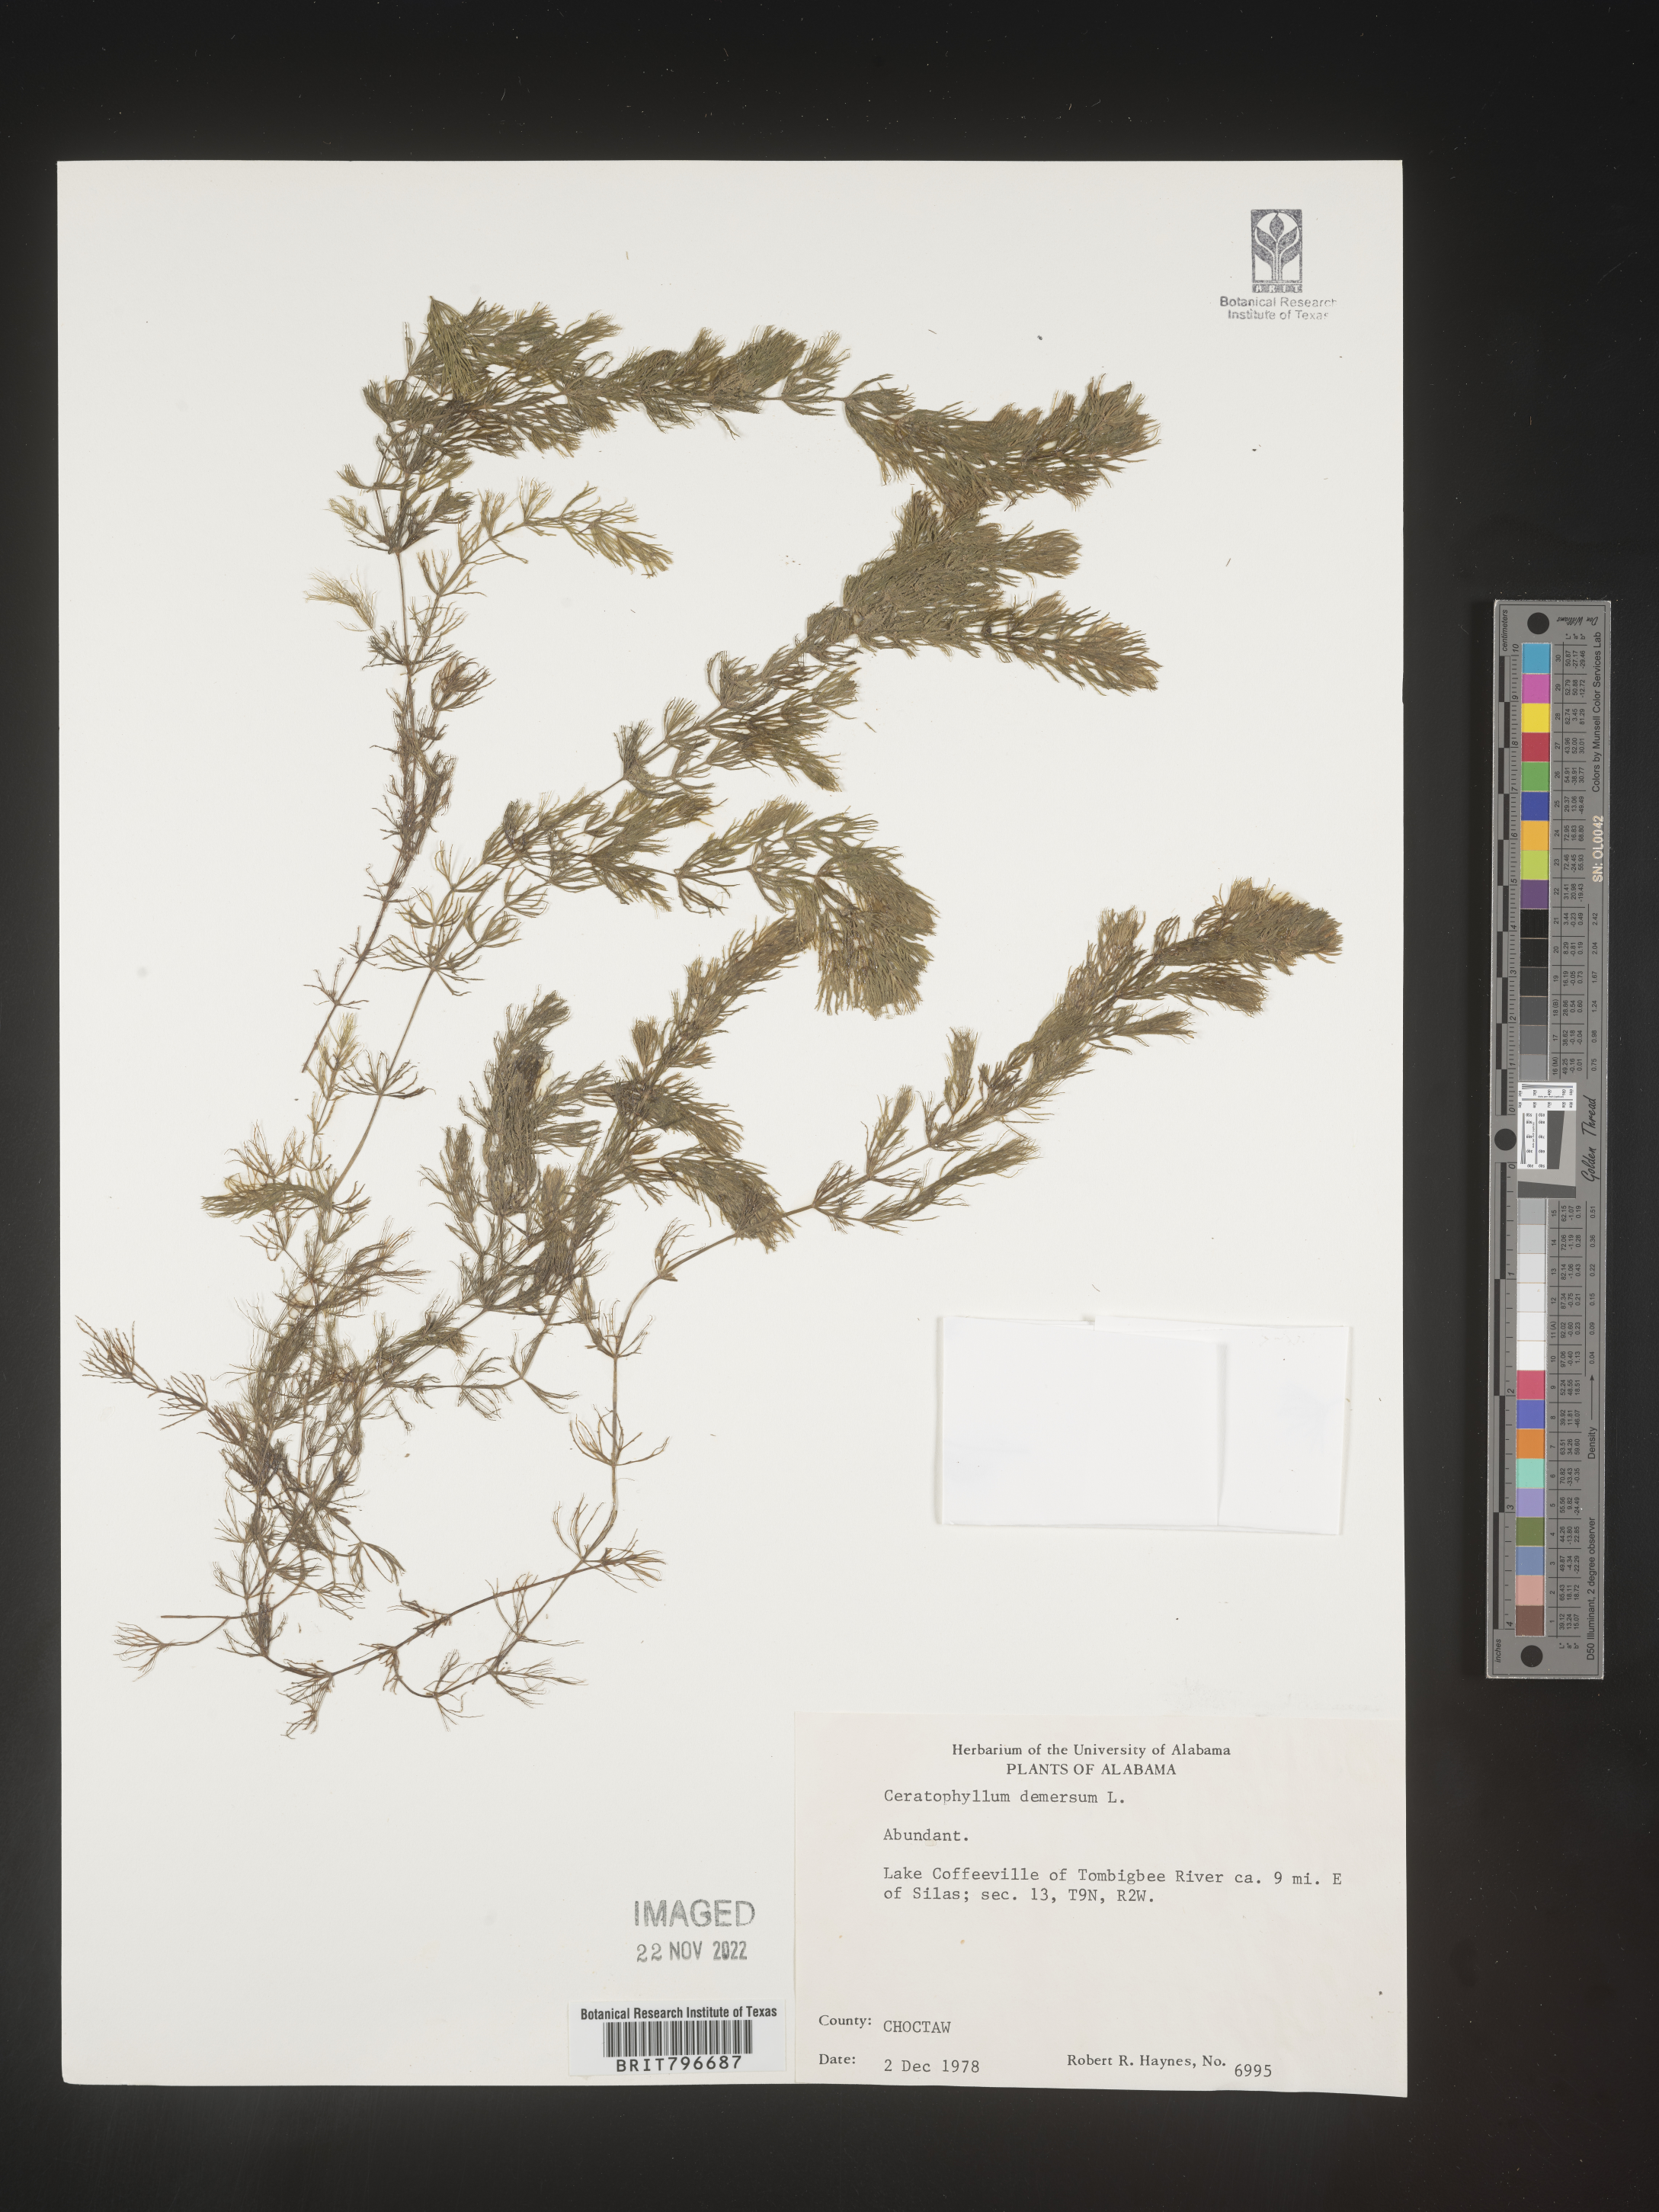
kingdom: Plantae
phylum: Tracheophyta
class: Magnoliopsida
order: Ceratophyllales
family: Ceratophyllaceae
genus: Ceratophyllum
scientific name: Ceratophyllum demersum
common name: Rigid hornwort
